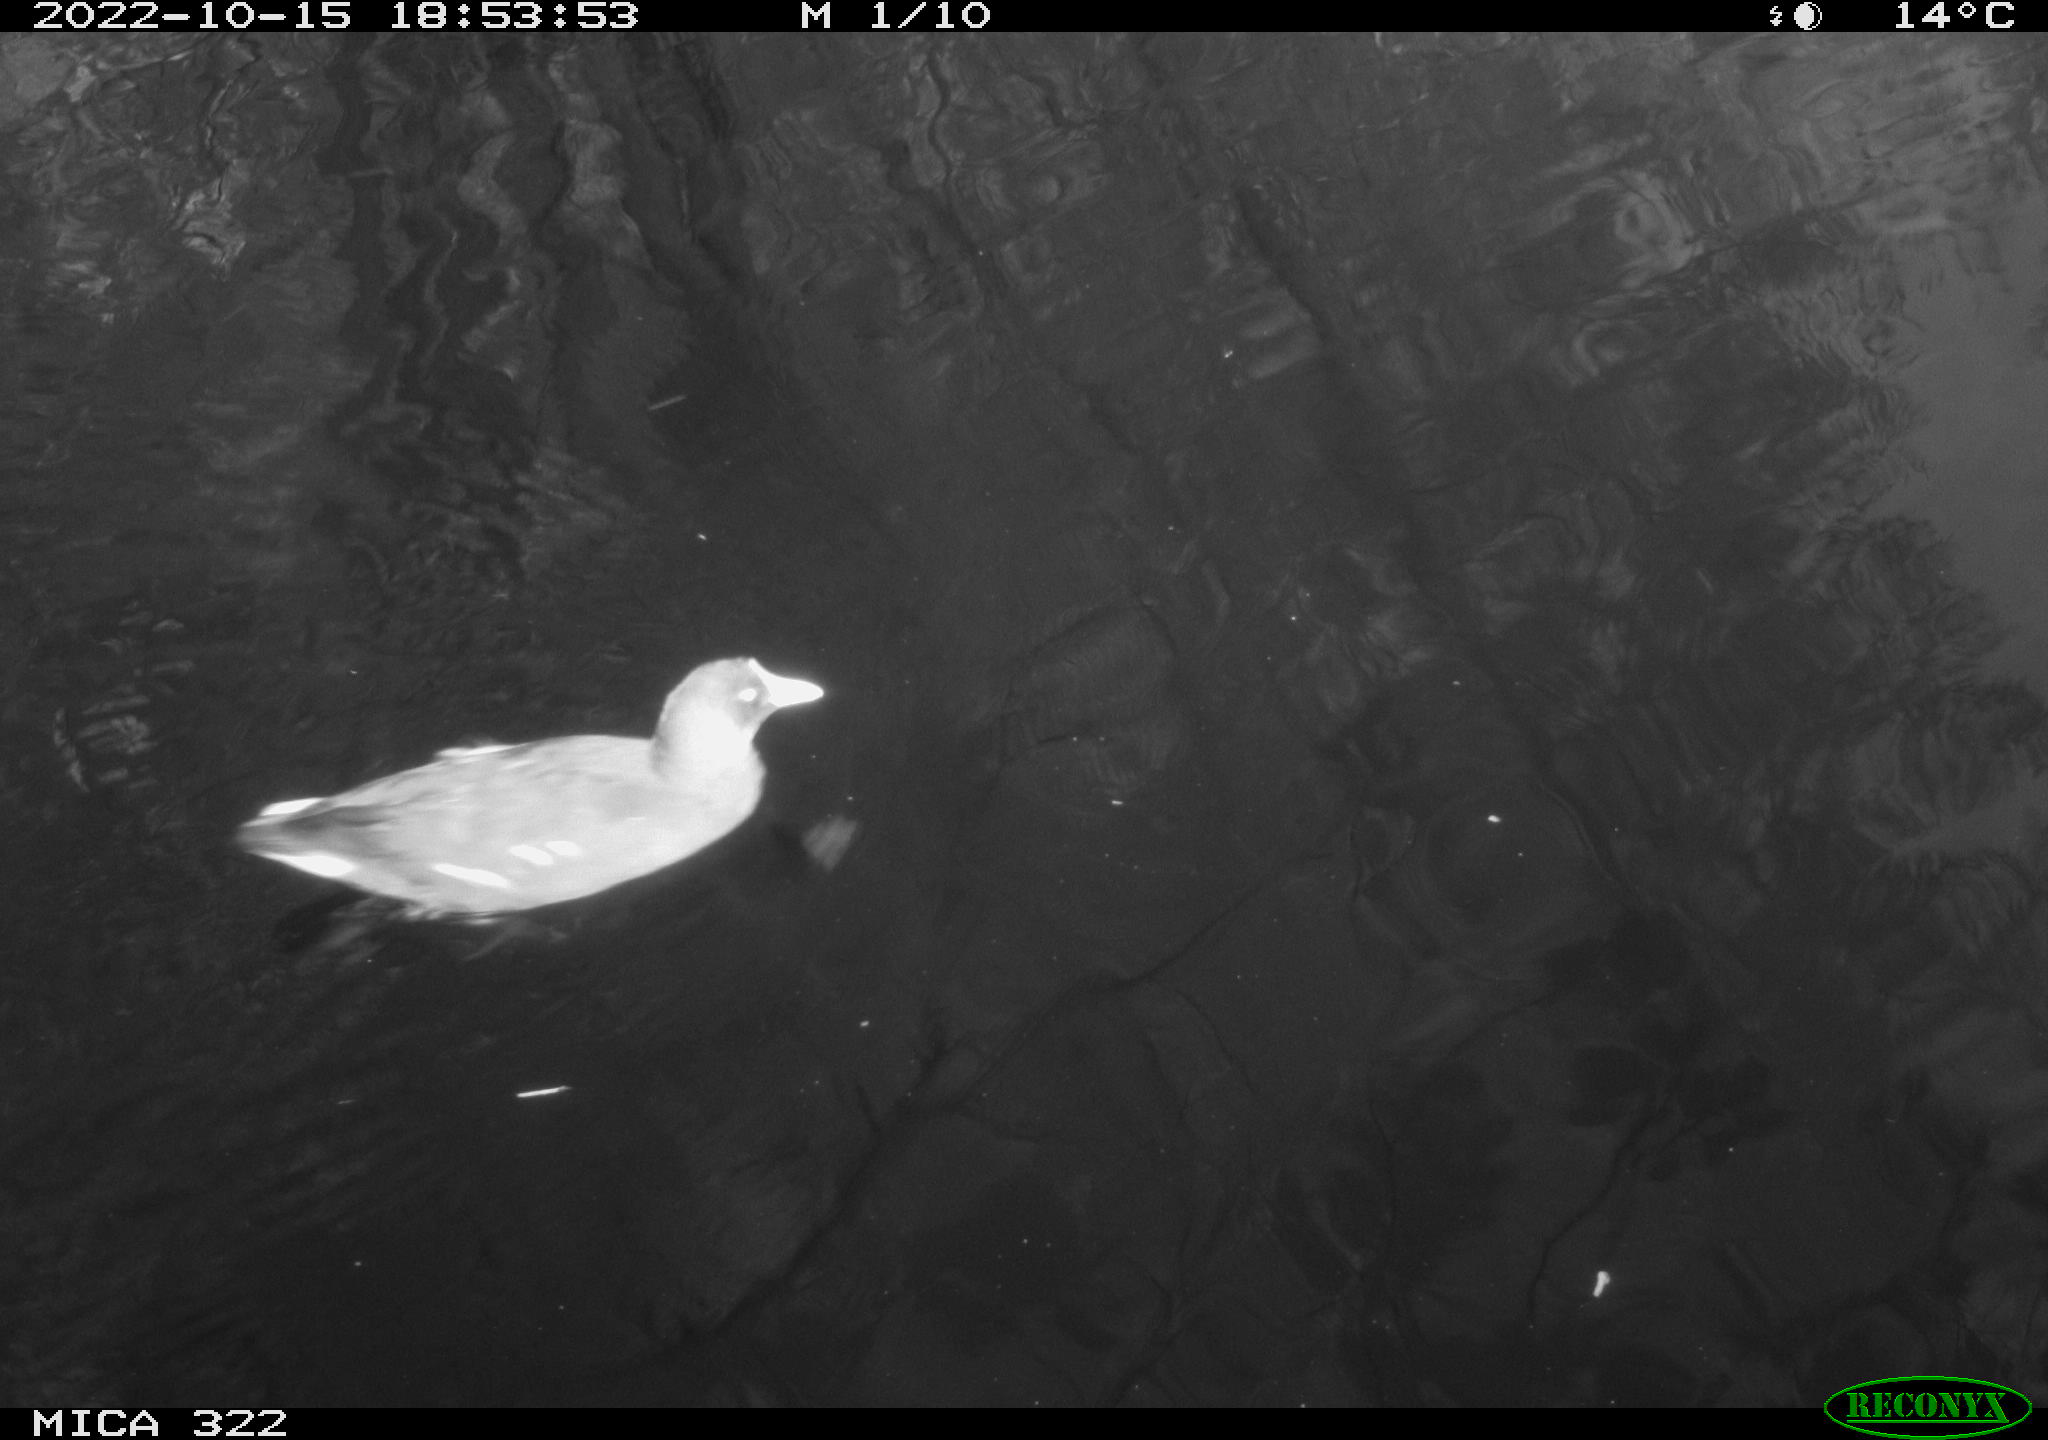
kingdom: Animalia
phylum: Chordata
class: Aves
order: Anseriformes
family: Anatidae
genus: Anas
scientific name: Anas
